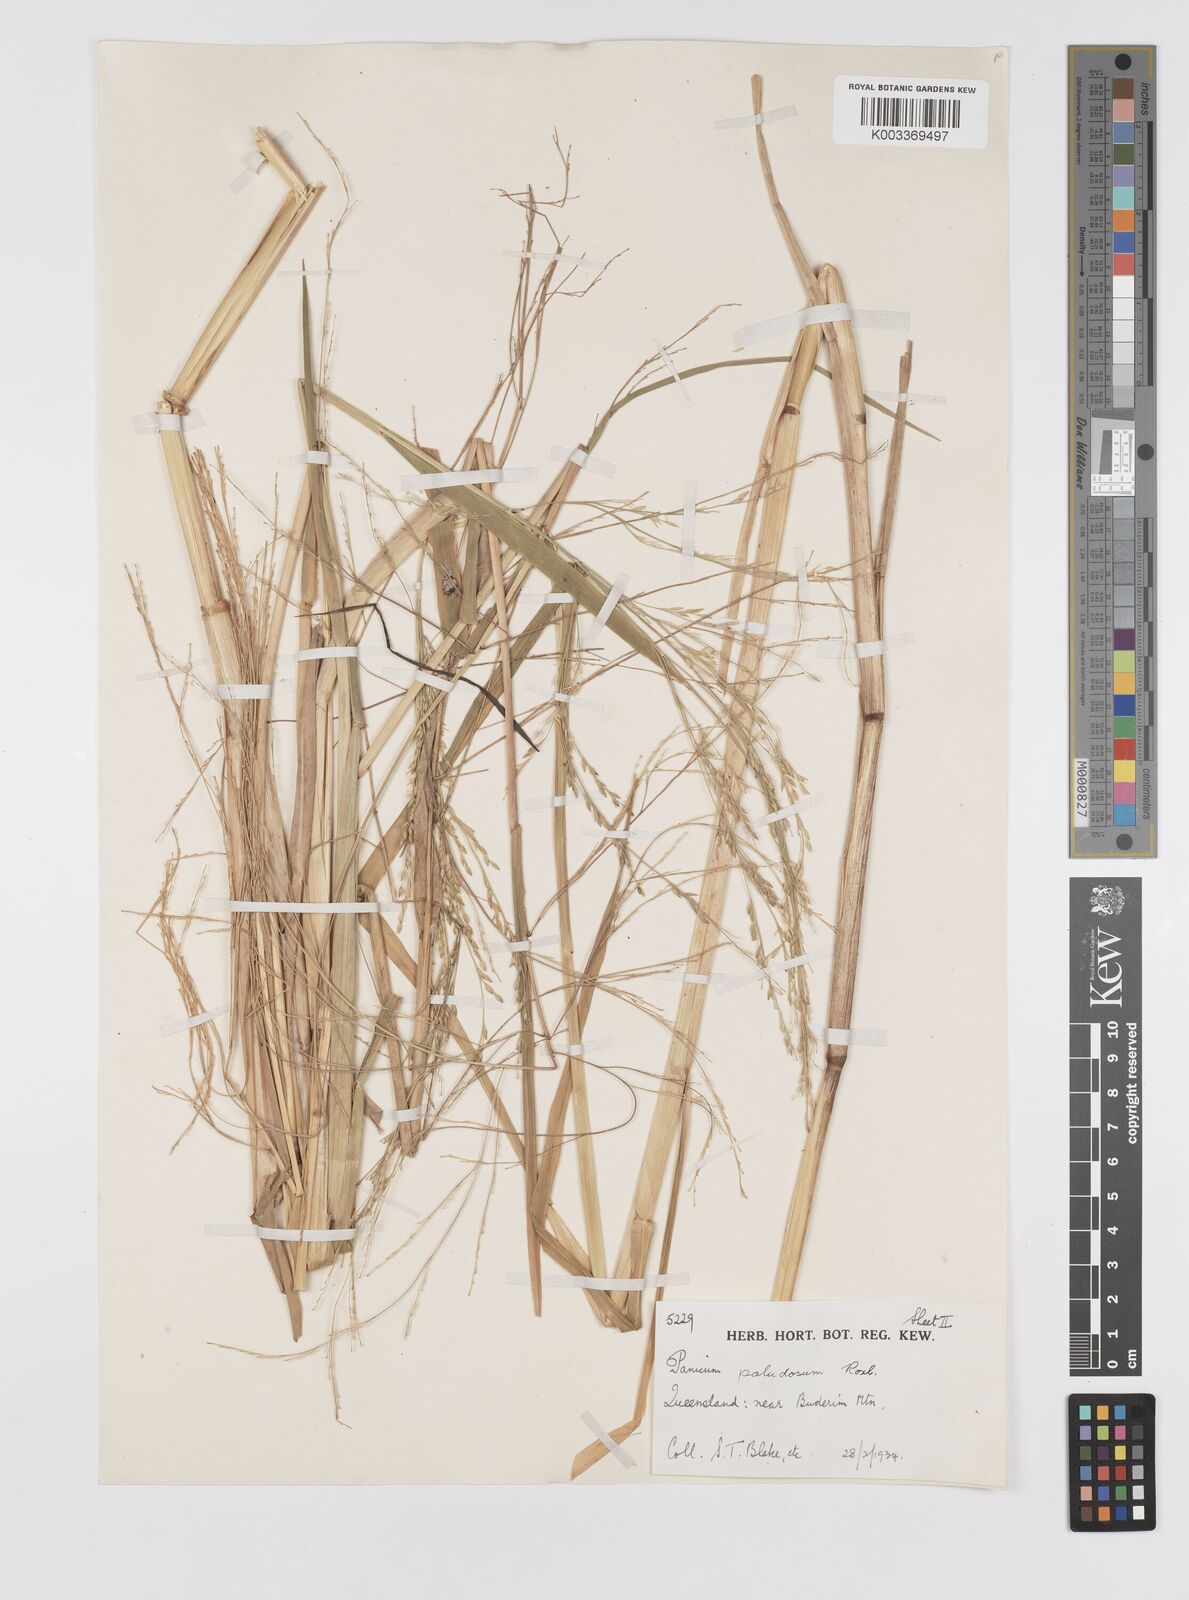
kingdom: Plantae
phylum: Tracheophyta
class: Liliopsida
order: Poales
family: Poaceae
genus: Louisiella
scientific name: Louisiella paludosa
